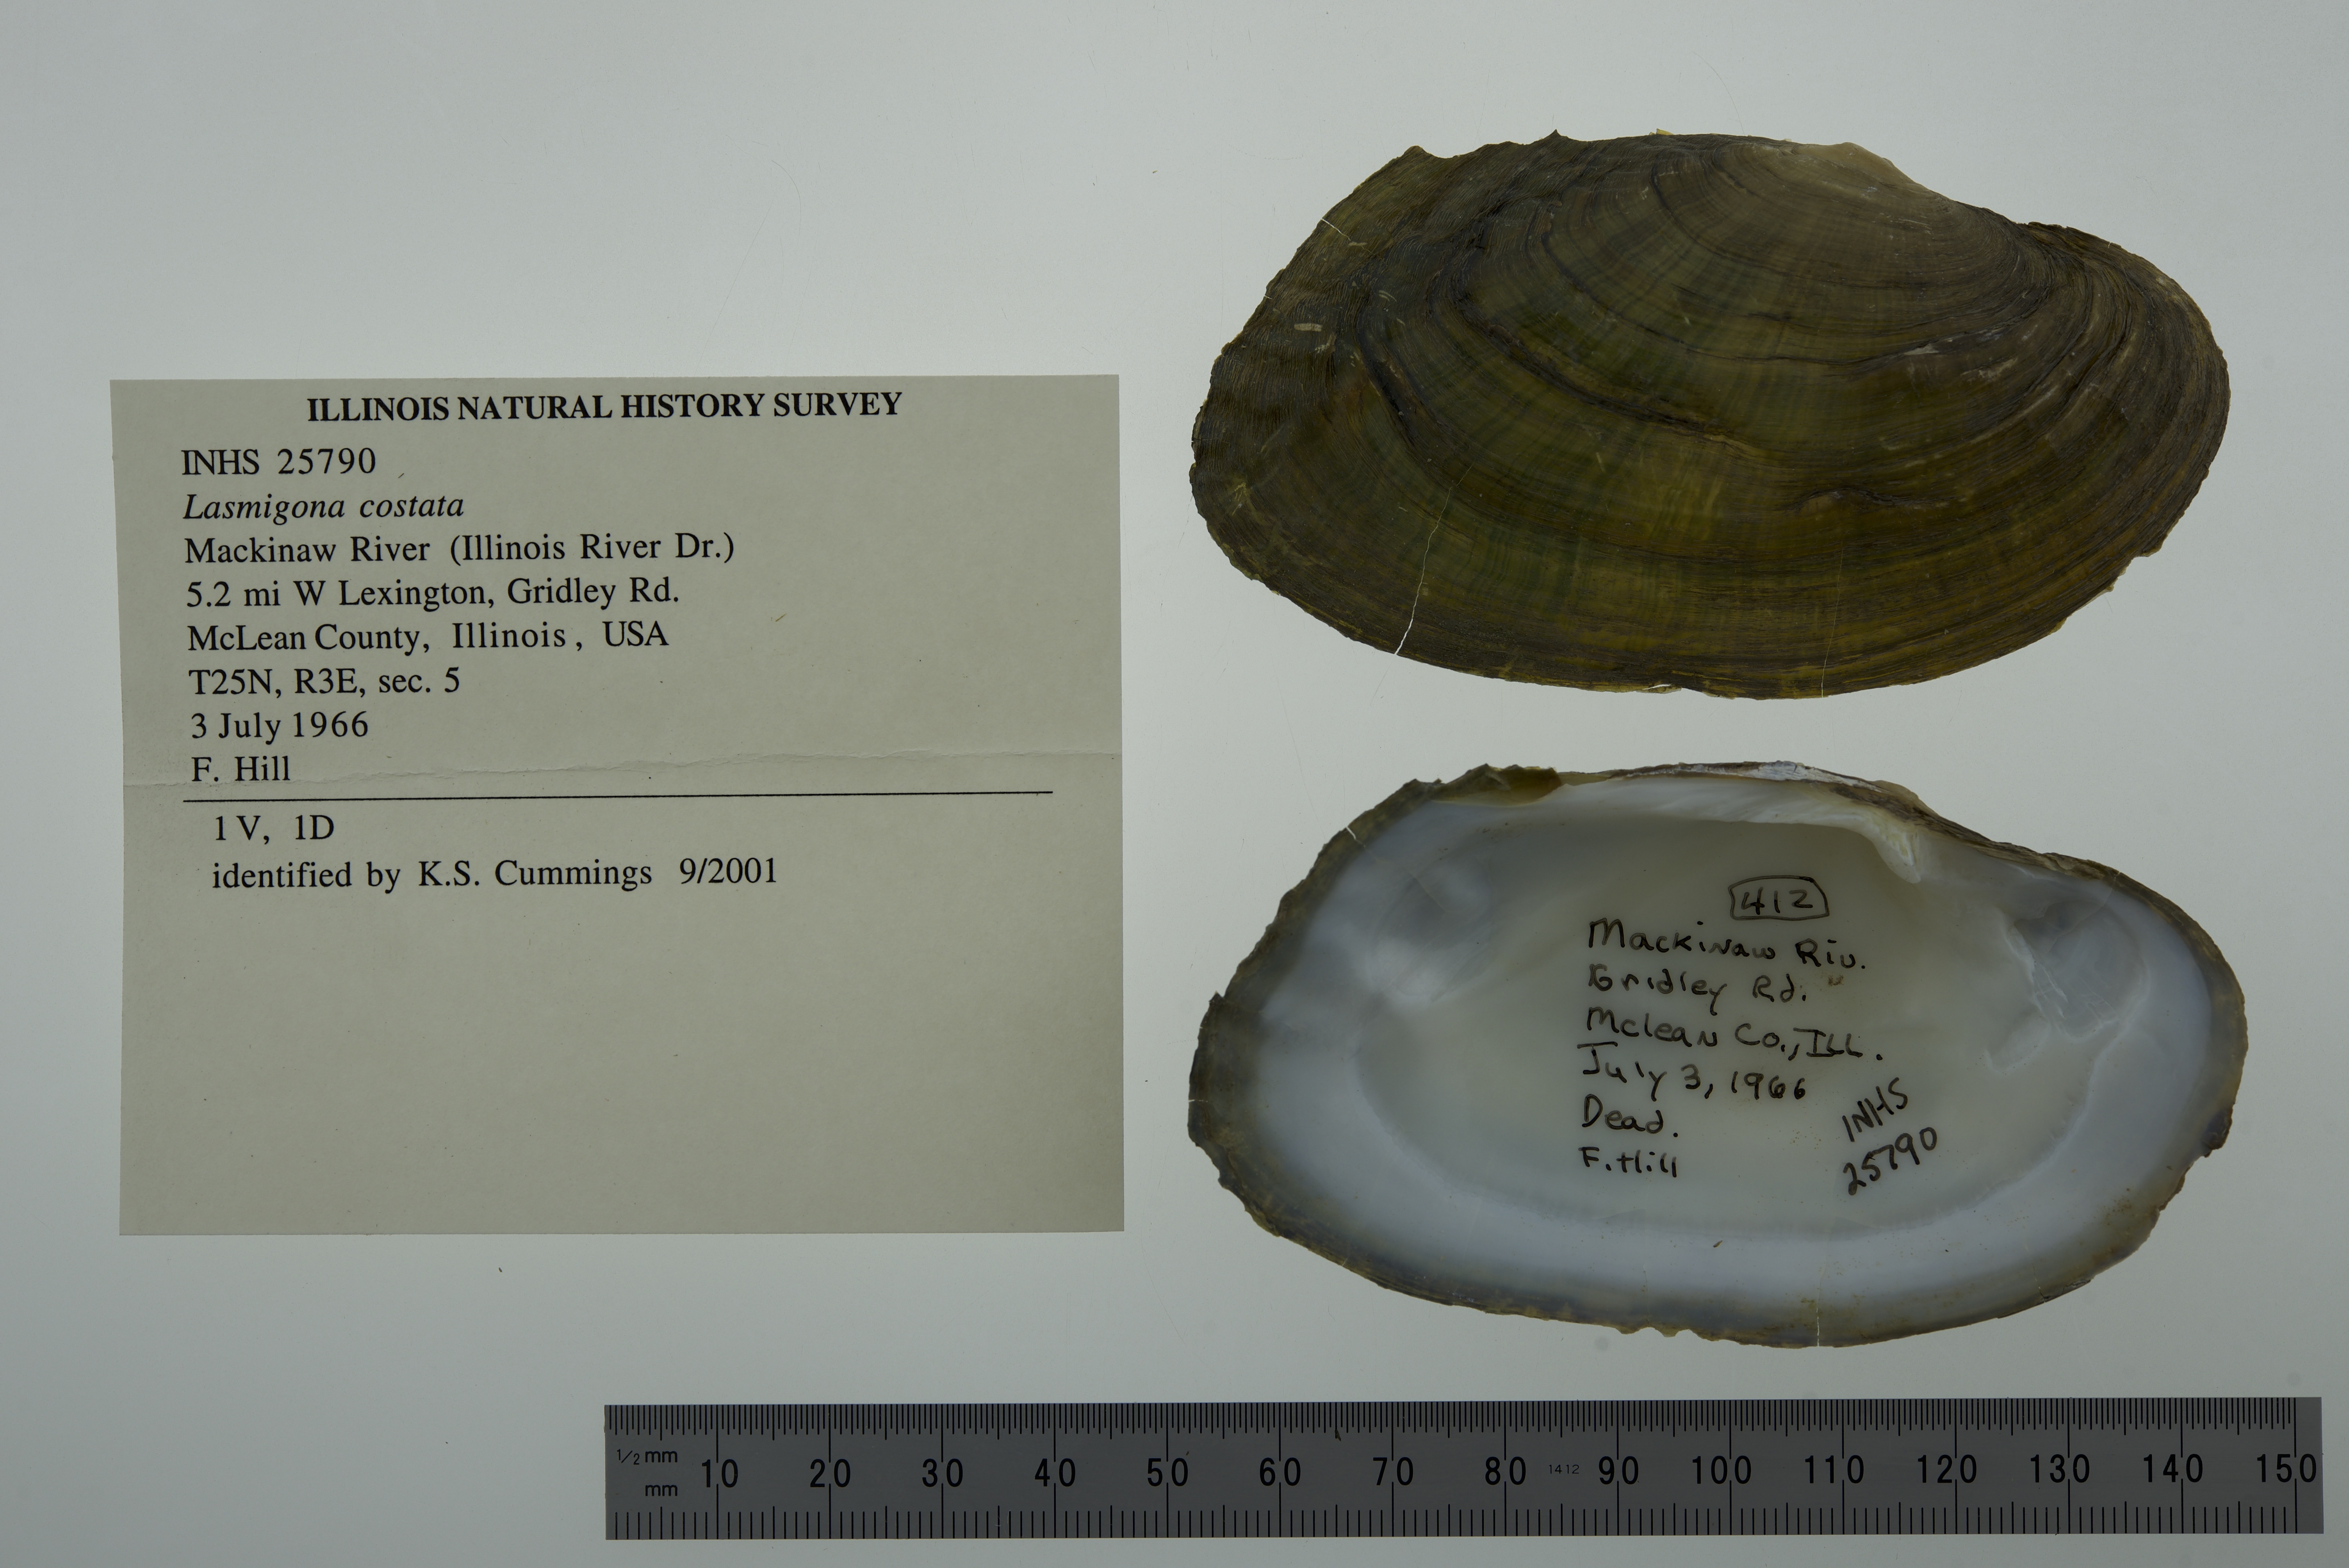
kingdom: Animalia
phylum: Mollusca
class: Bivalvia
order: Unionida
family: Unionidae
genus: Lasmigona
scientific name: Lasmigona costata
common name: Flutedshell
